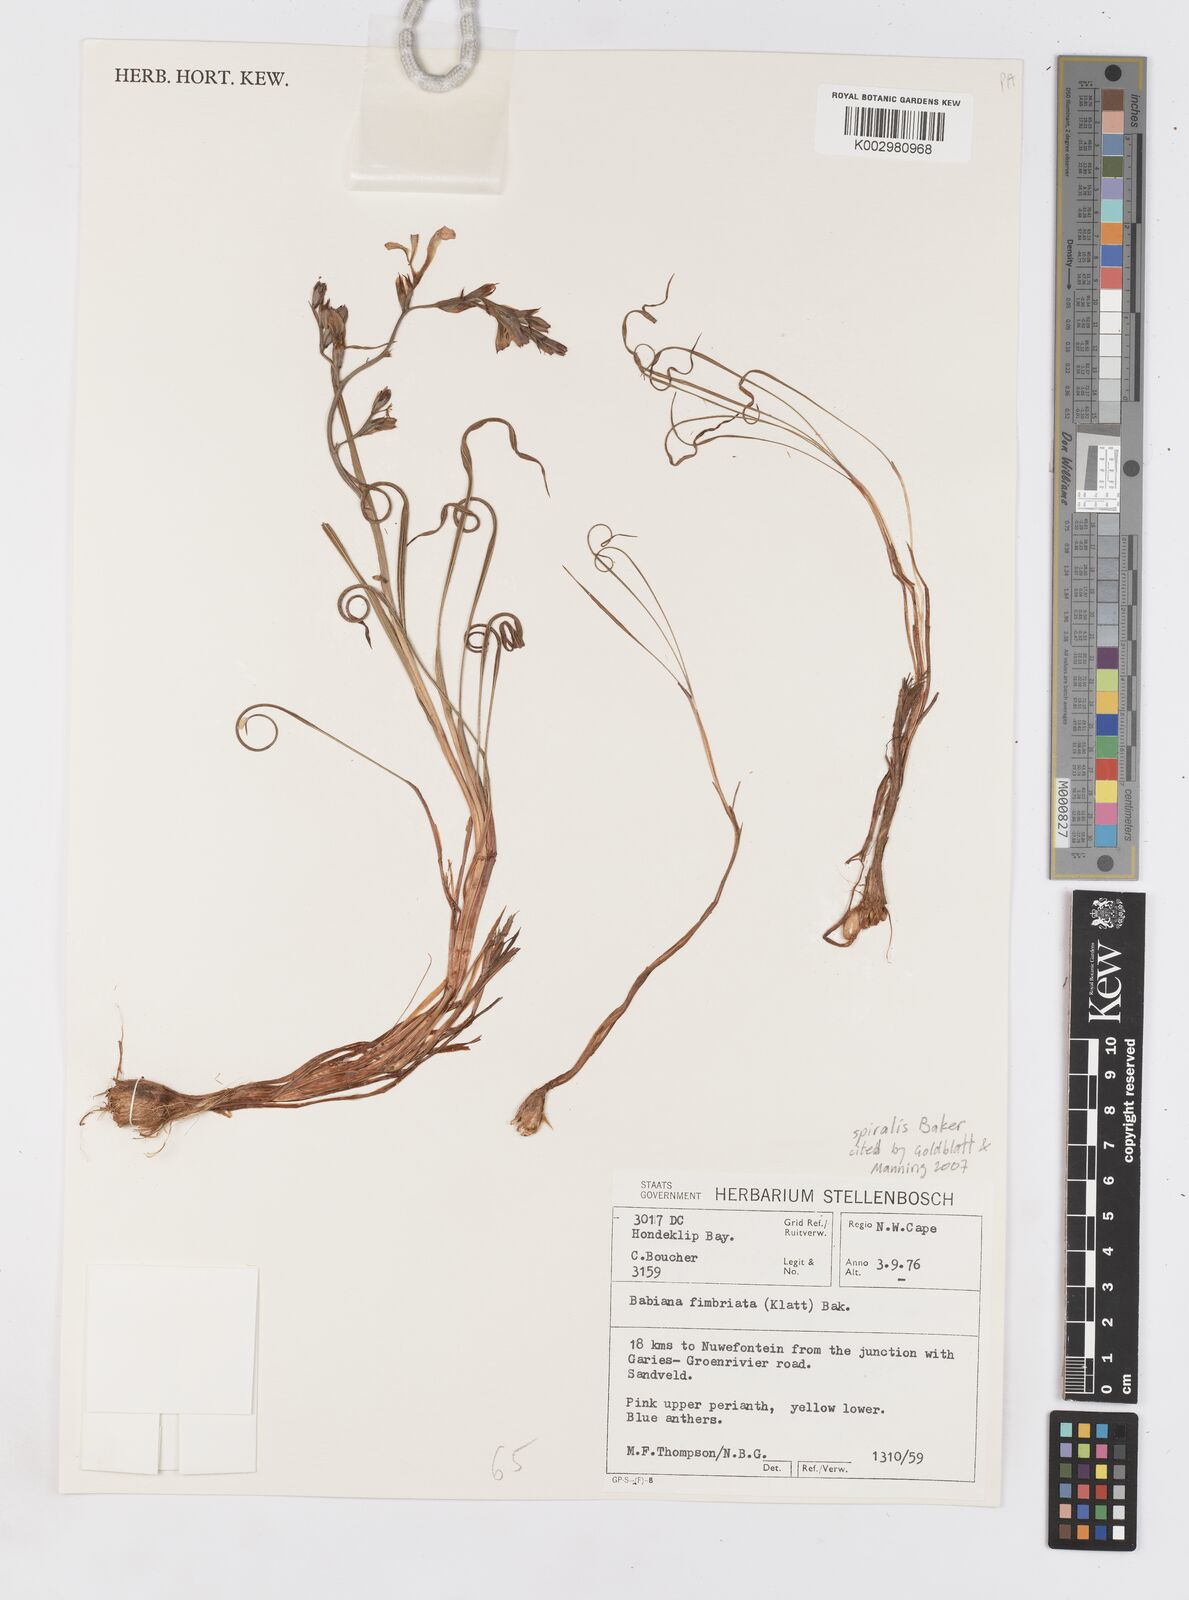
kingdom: Plantae
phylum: Tracheophyta
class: Liliopsida
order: Asparagales
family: Iridaceae
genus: Babiana
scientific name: Babiana spiralis
